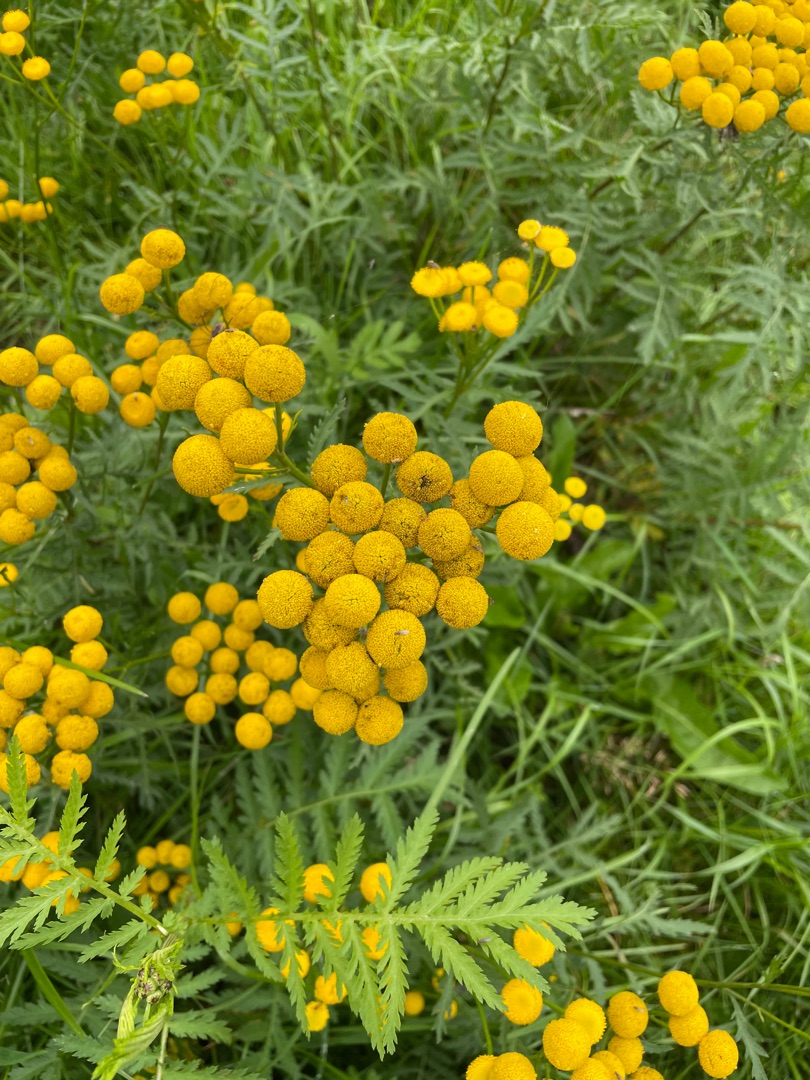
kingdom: Plantae
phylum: Tracheophyta
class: Magnoliopsida
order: Asterales
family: Asteraceae
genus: Tanacetum
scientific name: Tanacetum vulgare
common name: Rejnfan
